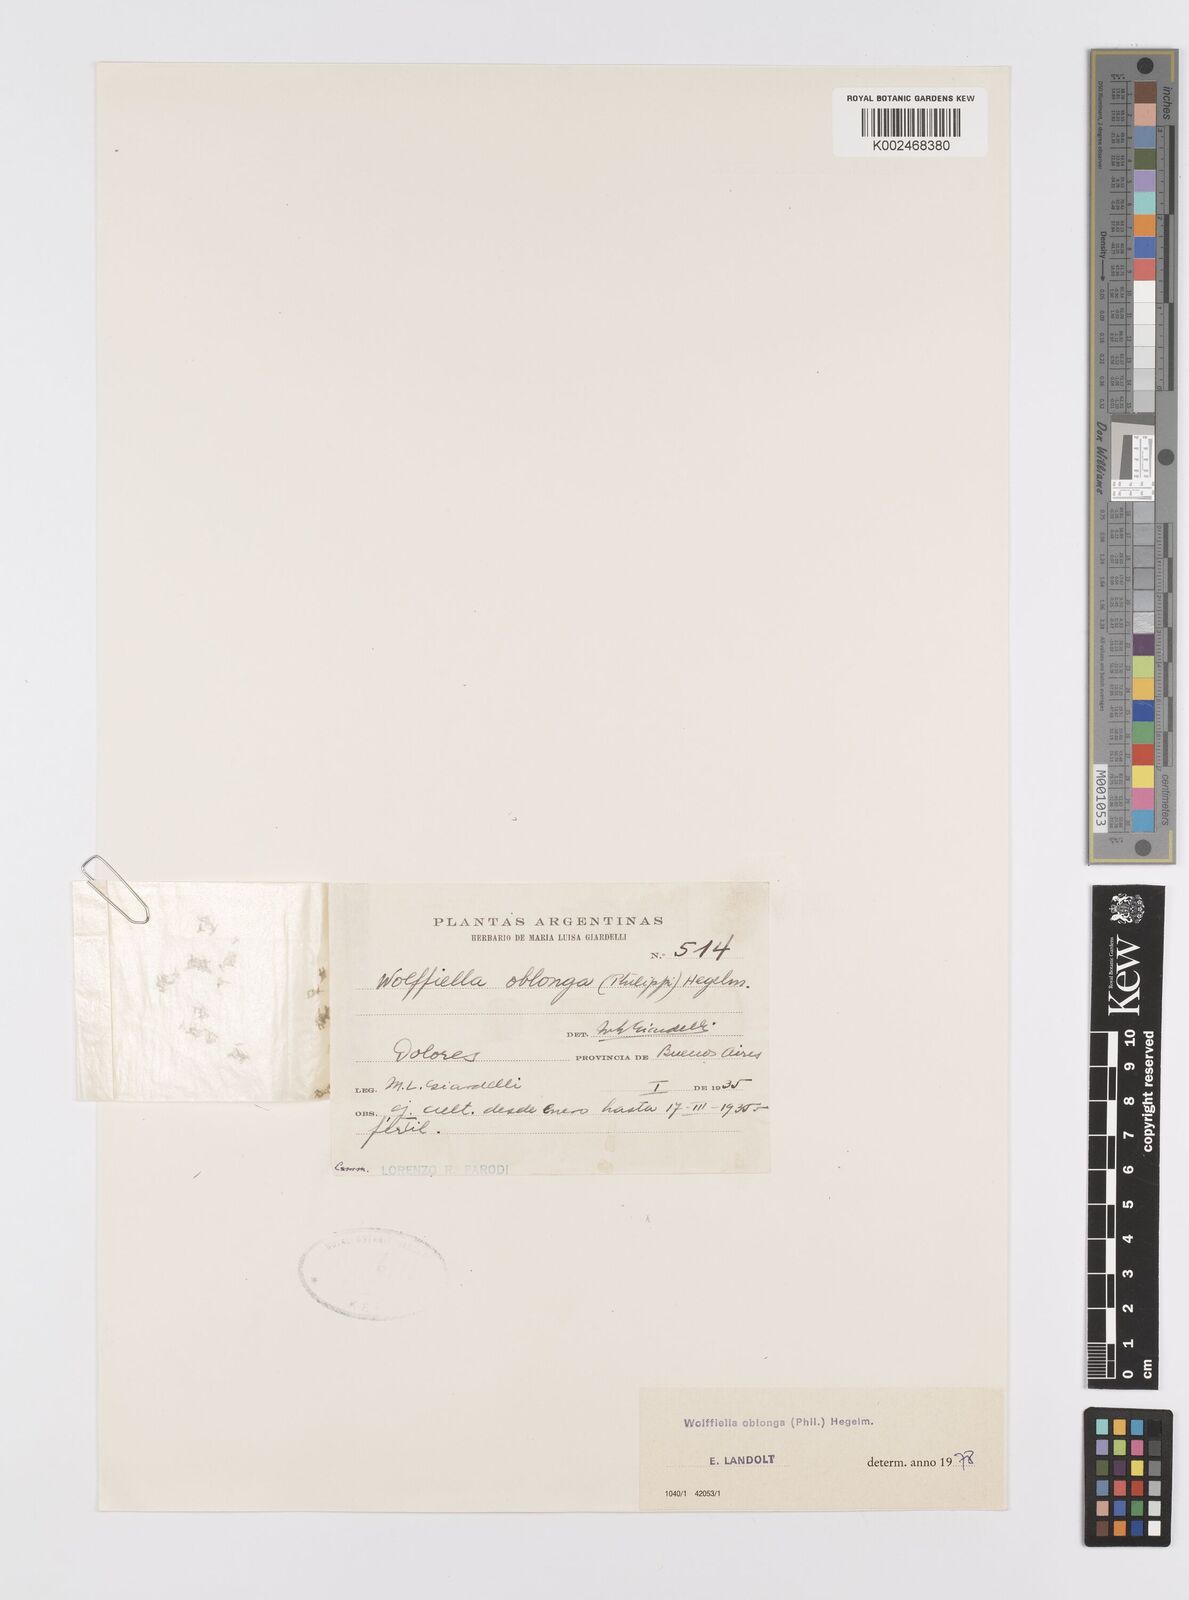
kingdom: Plantae
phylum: Tracheophyta
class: Liliopsida
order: Alismatales
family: Araceae
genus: Wolffiella
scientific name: Wolffiella oblonga
